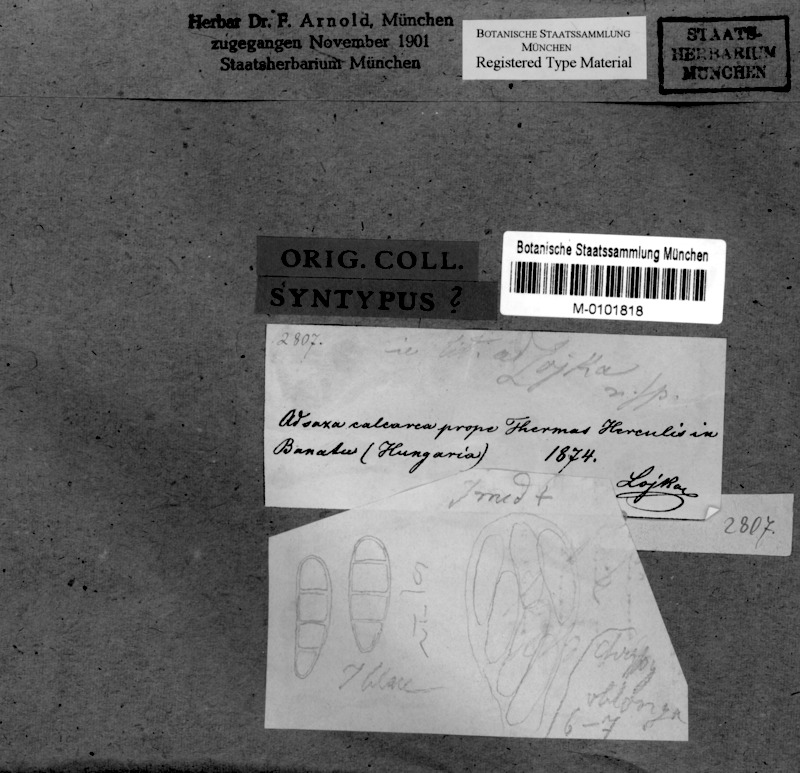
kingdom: Fungi
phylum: Ascomycota
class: Arthoniomycetes
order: Arthoniales
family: Arthoniaceae
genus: Arthonia
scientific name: Arthonia
